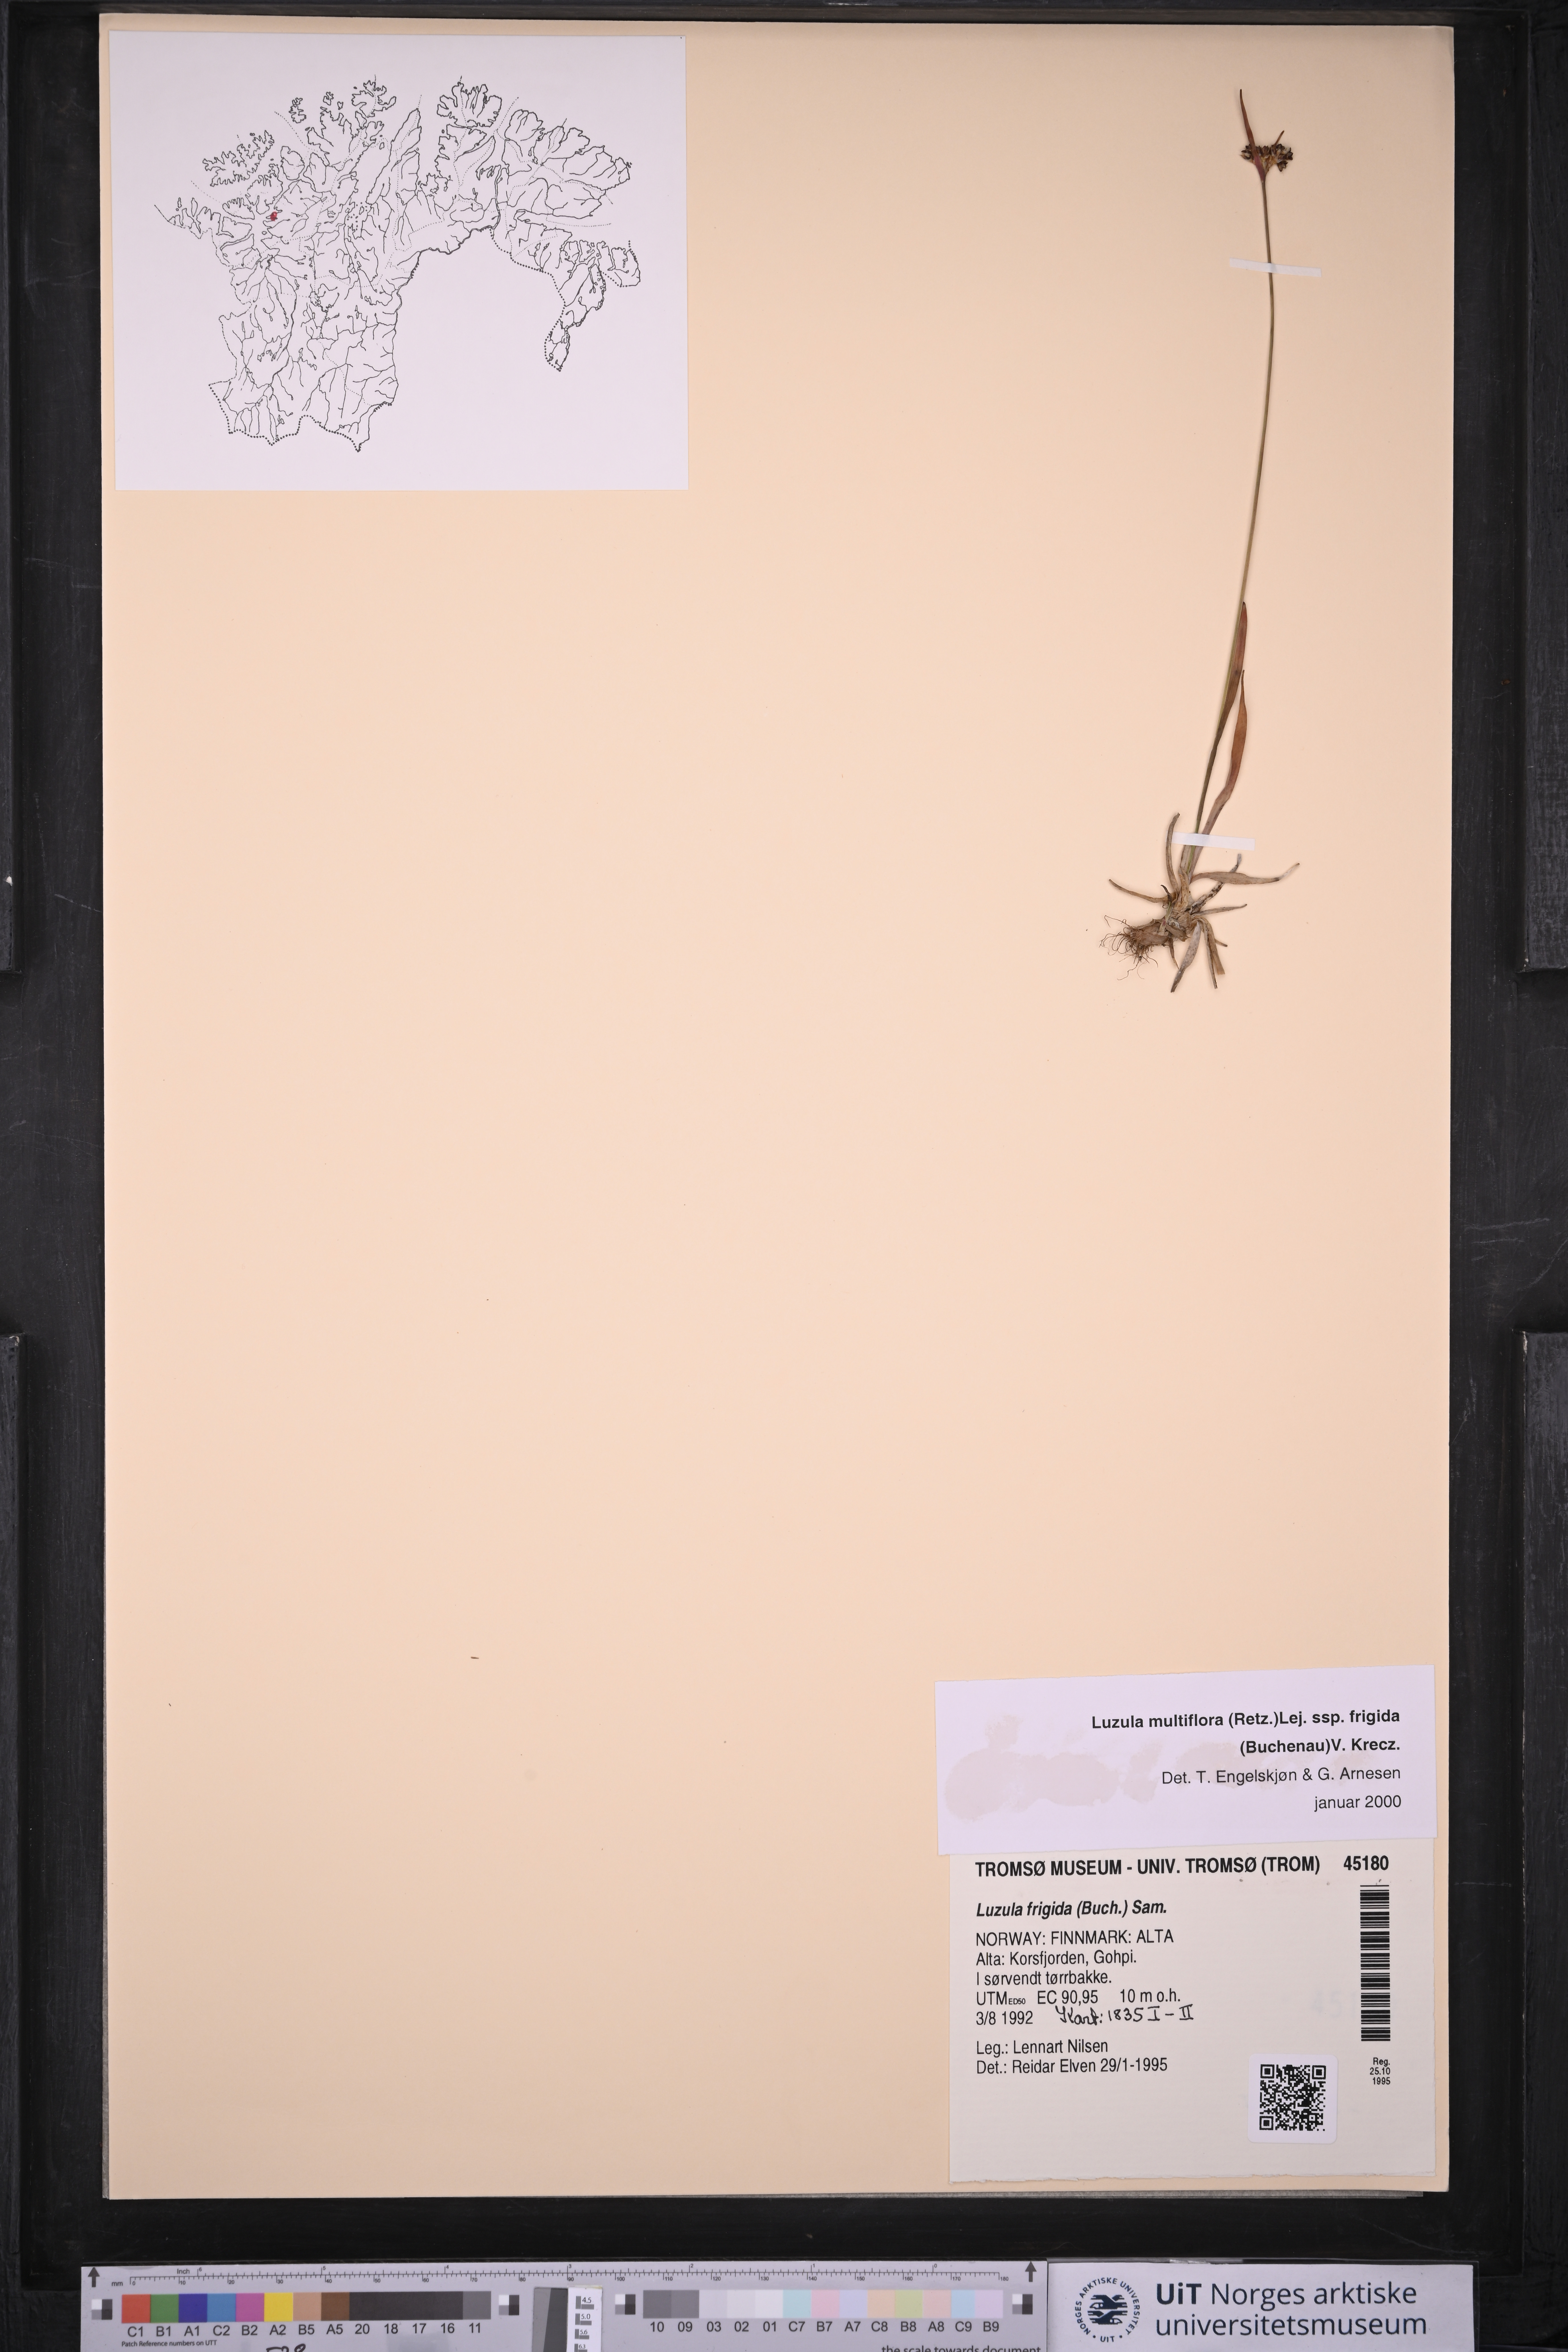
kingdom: Plantae
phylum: Tracheophyta
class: Liliopsida
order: Poales
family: Juncaceae
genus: Luzula
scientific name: Luzula multiflora
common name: Heath wood-rush
